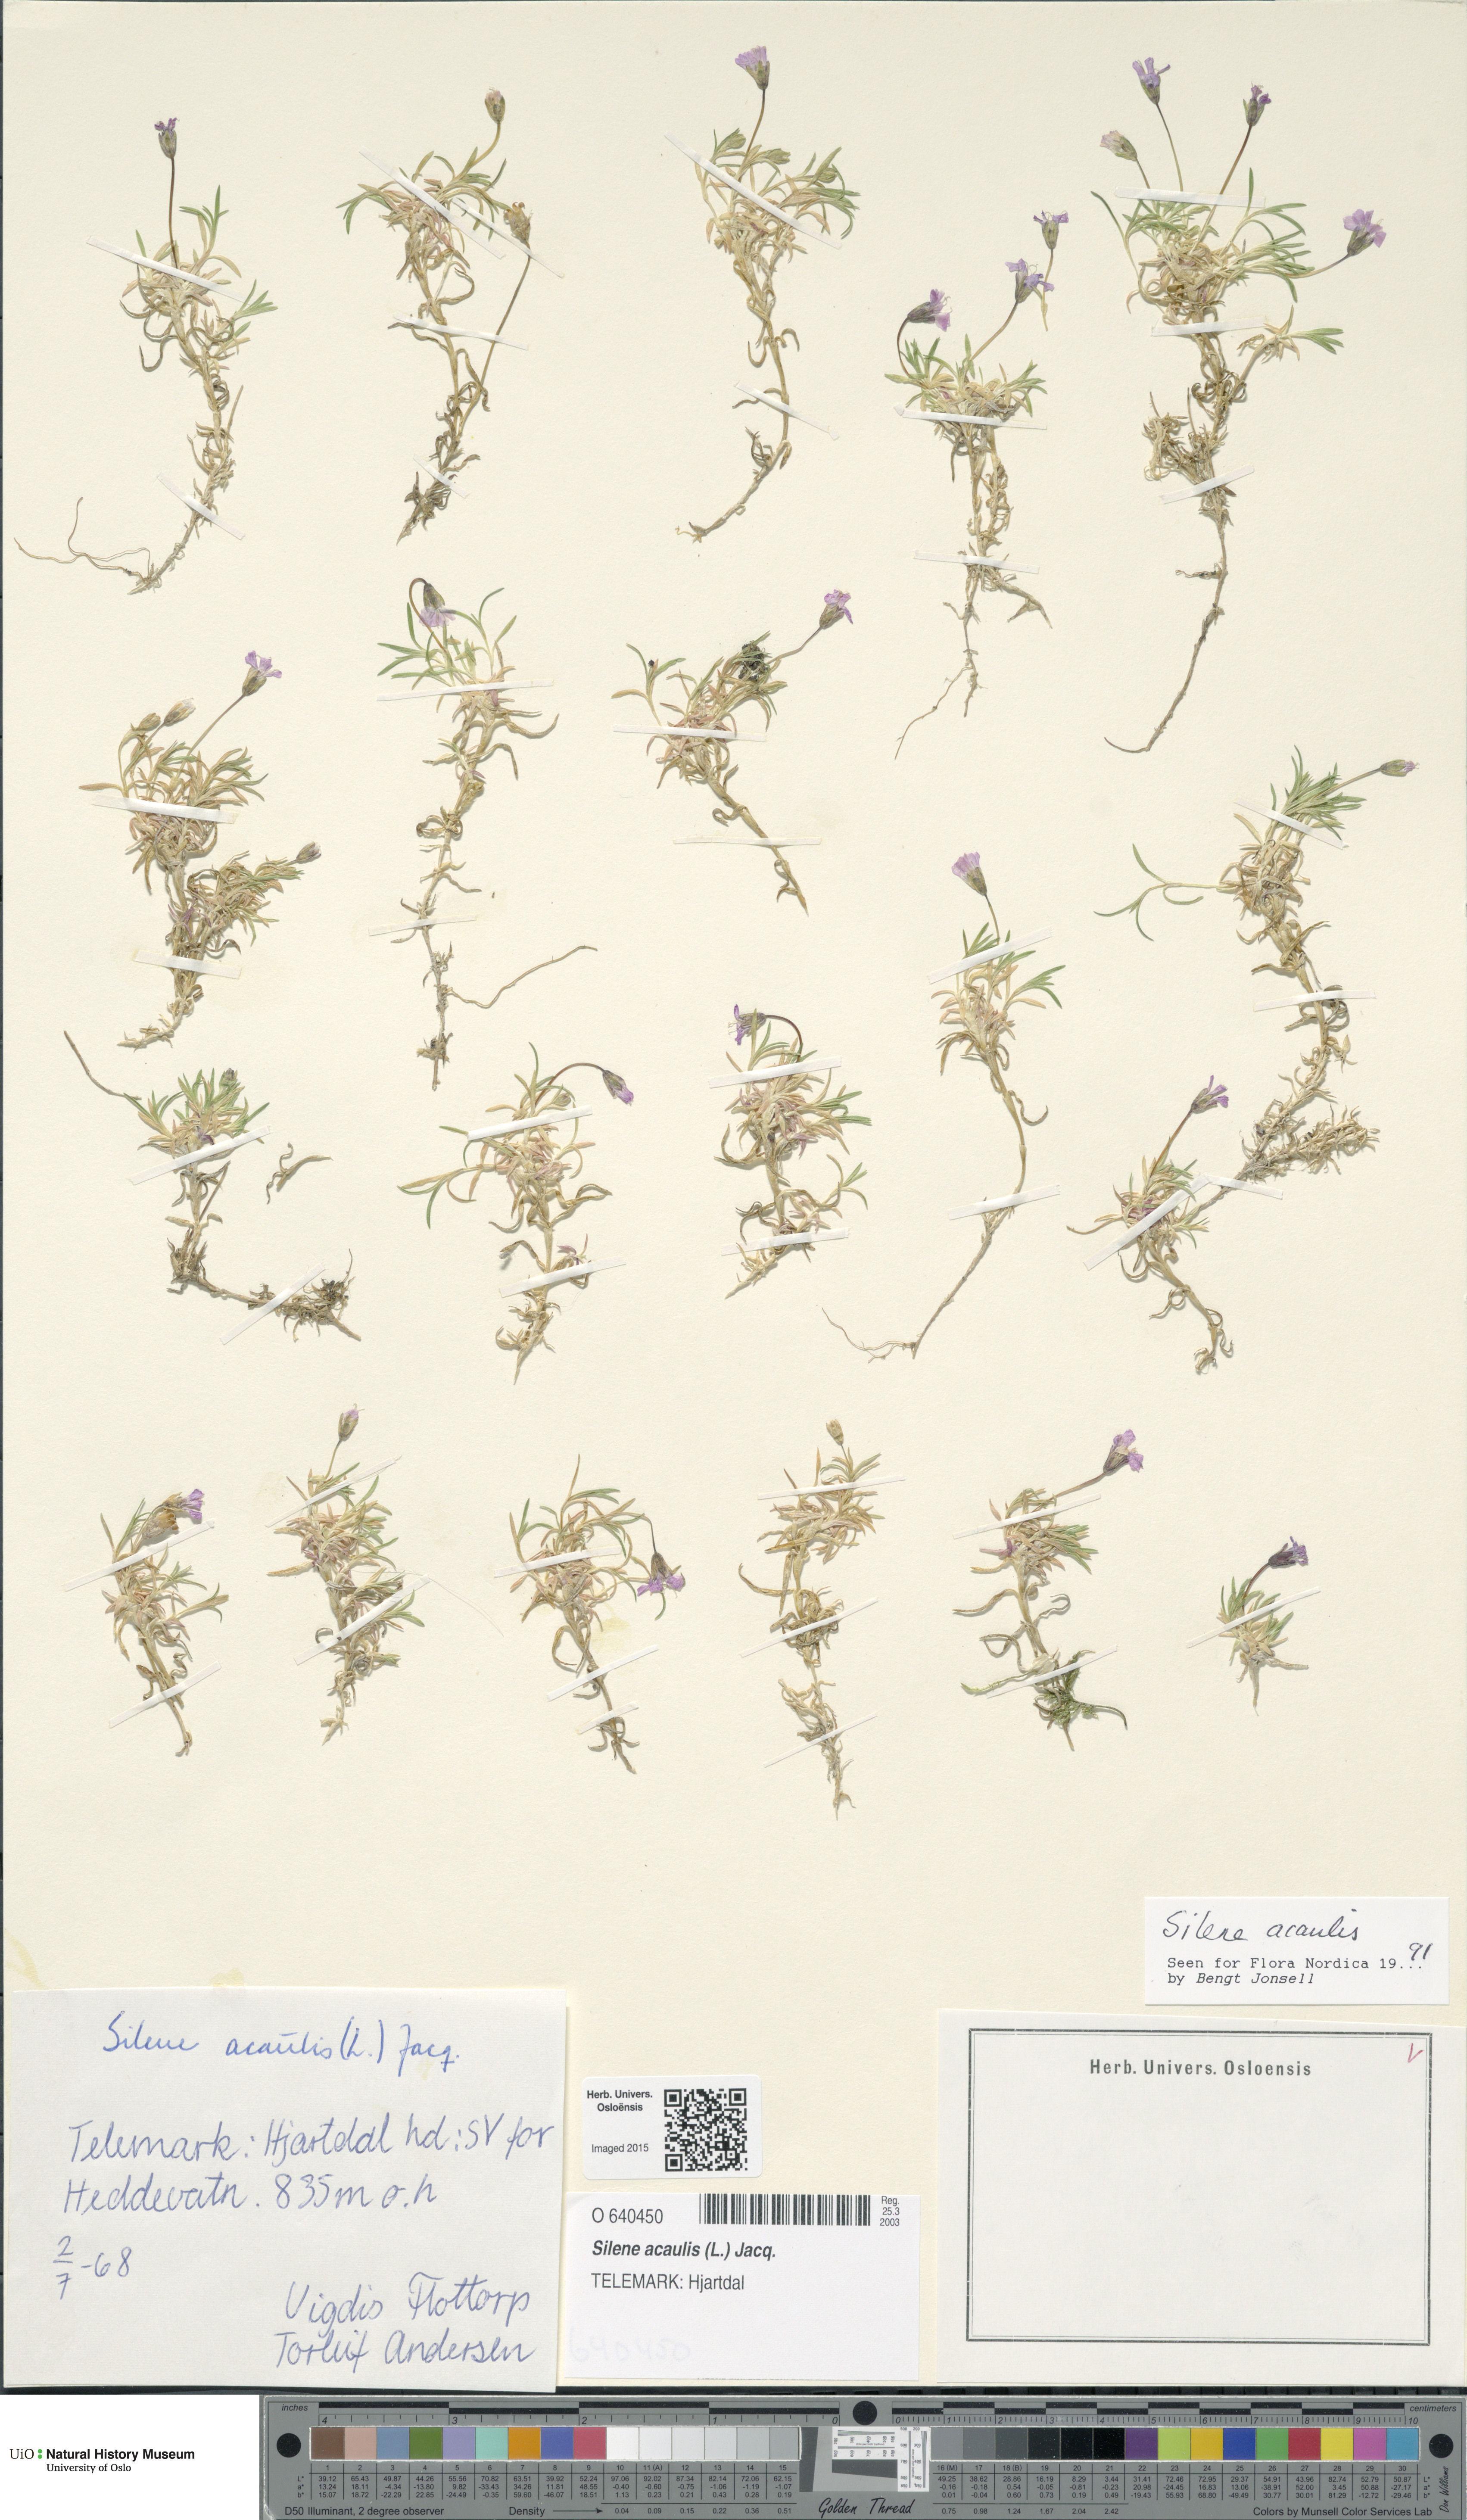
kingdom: Plantae
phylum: Tracheophyta
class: Magnoliopsida
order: Caryophyllales
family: Caryophyllaceae
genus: Silene
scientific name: Silene acaulis
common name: Moss campion
